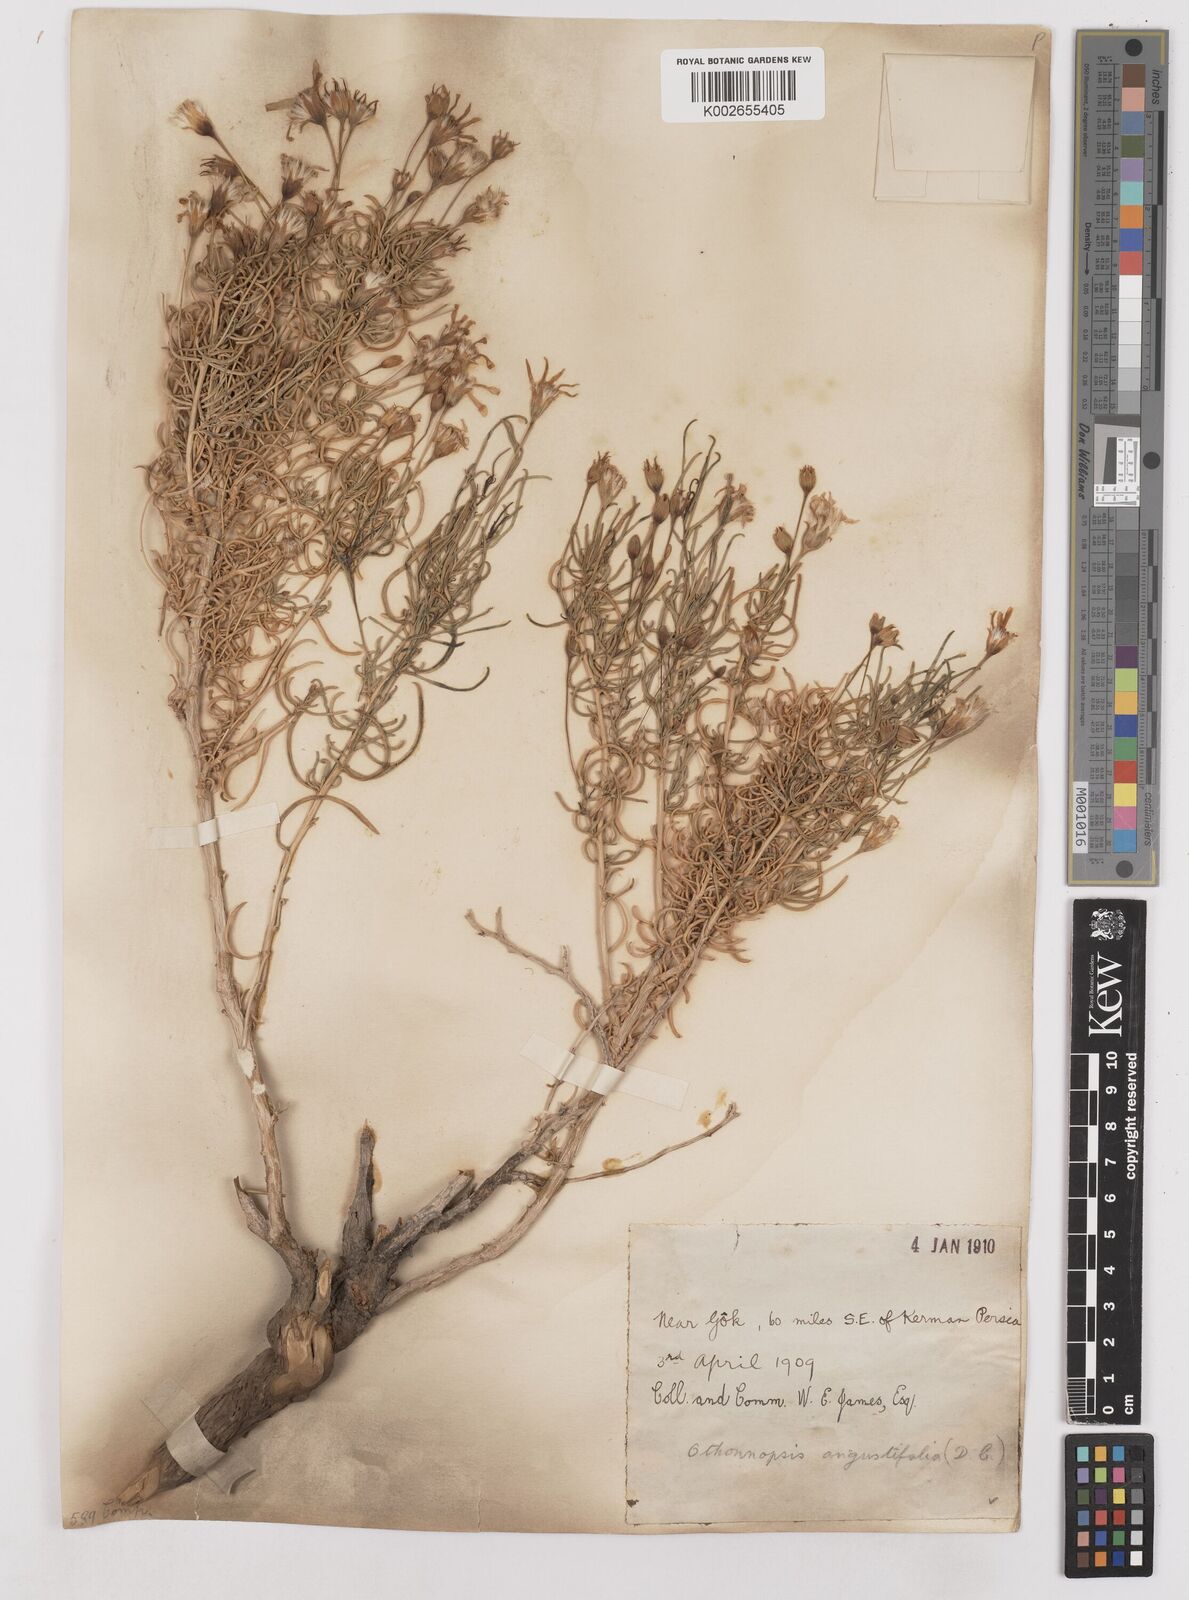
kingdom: Plantae
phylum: Tracheophyta
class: Magnoliopsida
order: Asterales
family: Asteraceae
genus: Hertia
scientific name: Hertia angustifolia
